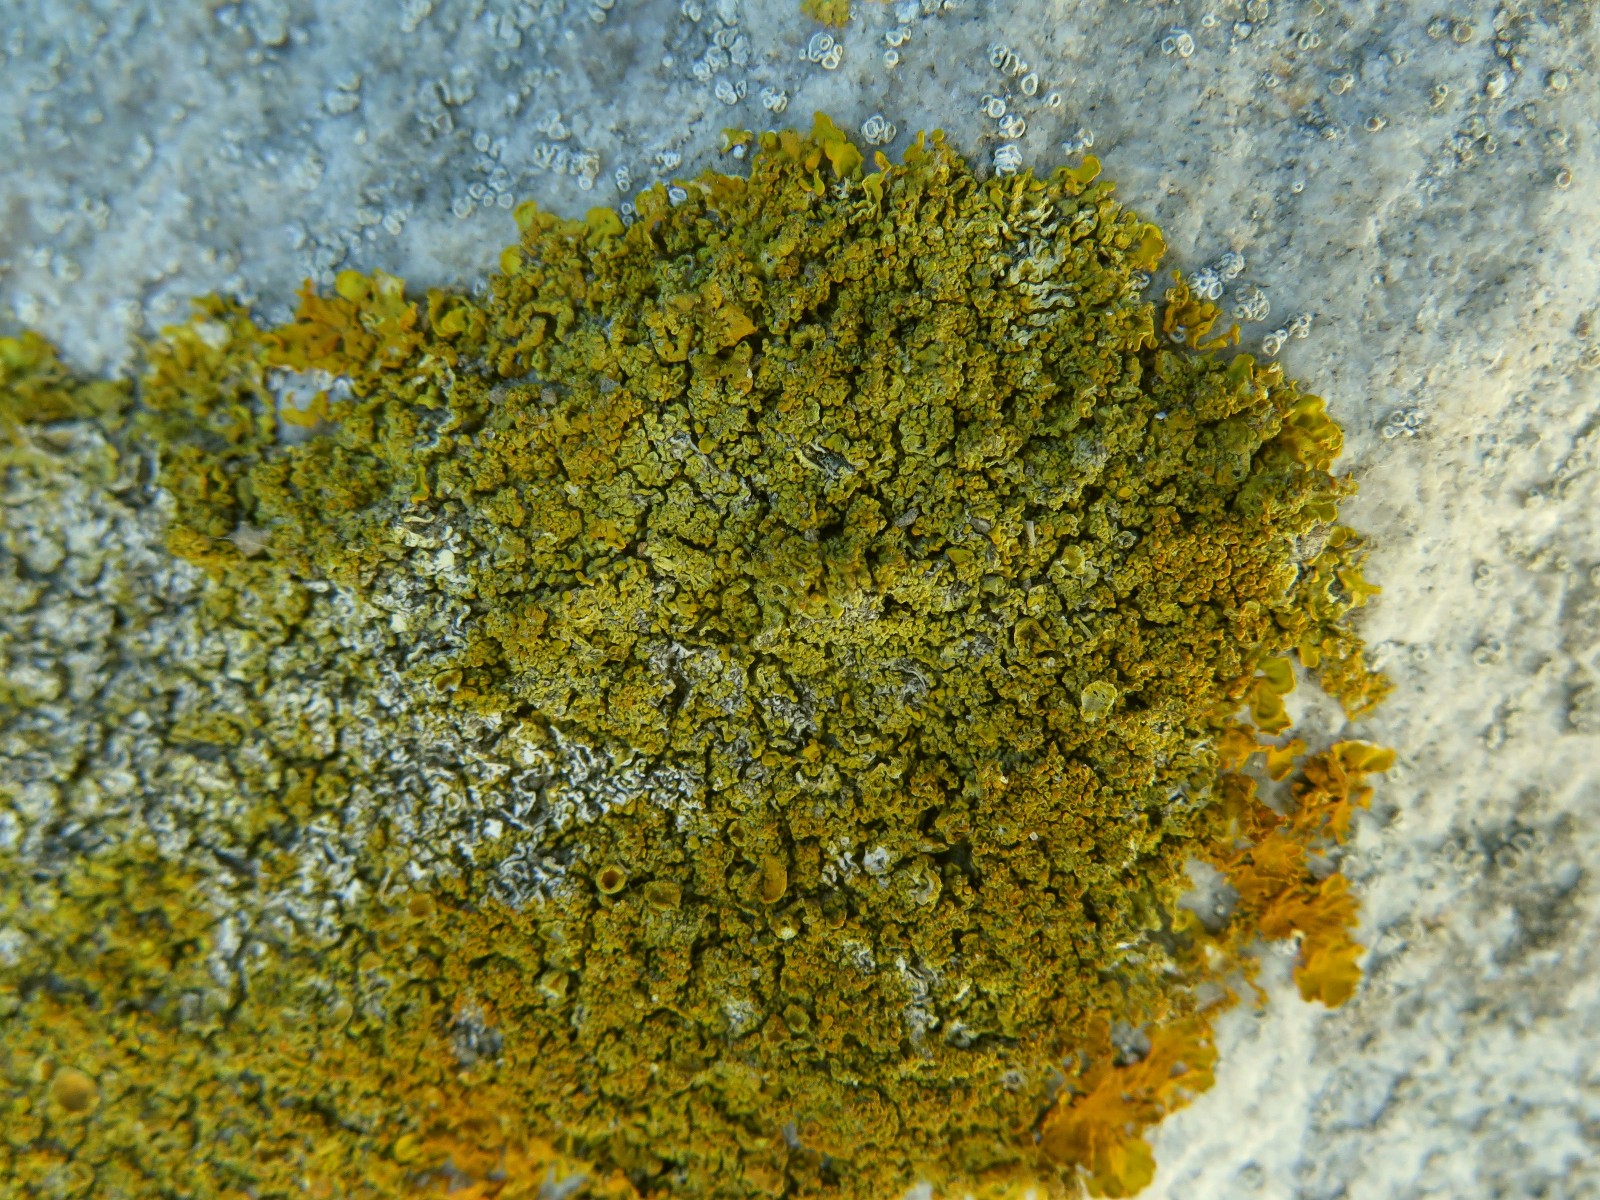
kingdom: Fungi
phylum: Ascomycota
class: Lecanoromycetes
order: Teloschistales
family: Teloschistaceae
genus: Xanthoria
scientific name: Xanthoria calcicola
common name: vortet væggelav
